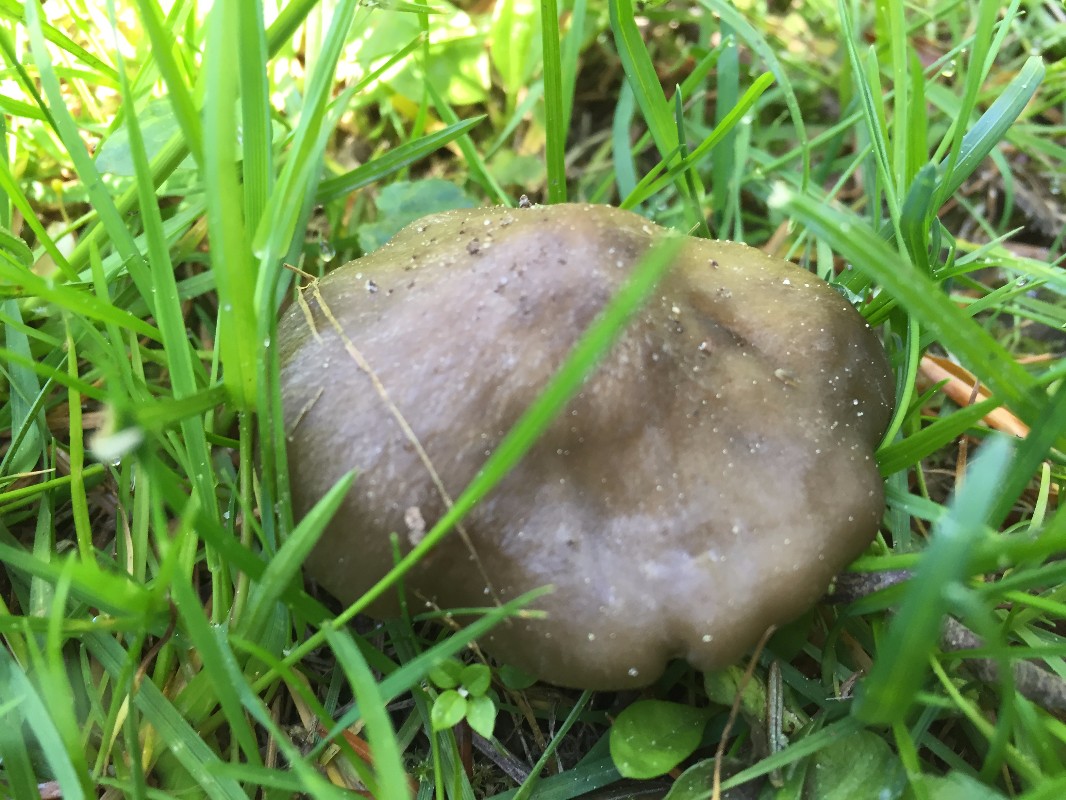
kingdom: Fungi
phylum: Basidiomycota
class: Agaricomycetes
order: Agaricales
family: Entolomataceae
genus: Entoloma
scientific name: Entoloma
